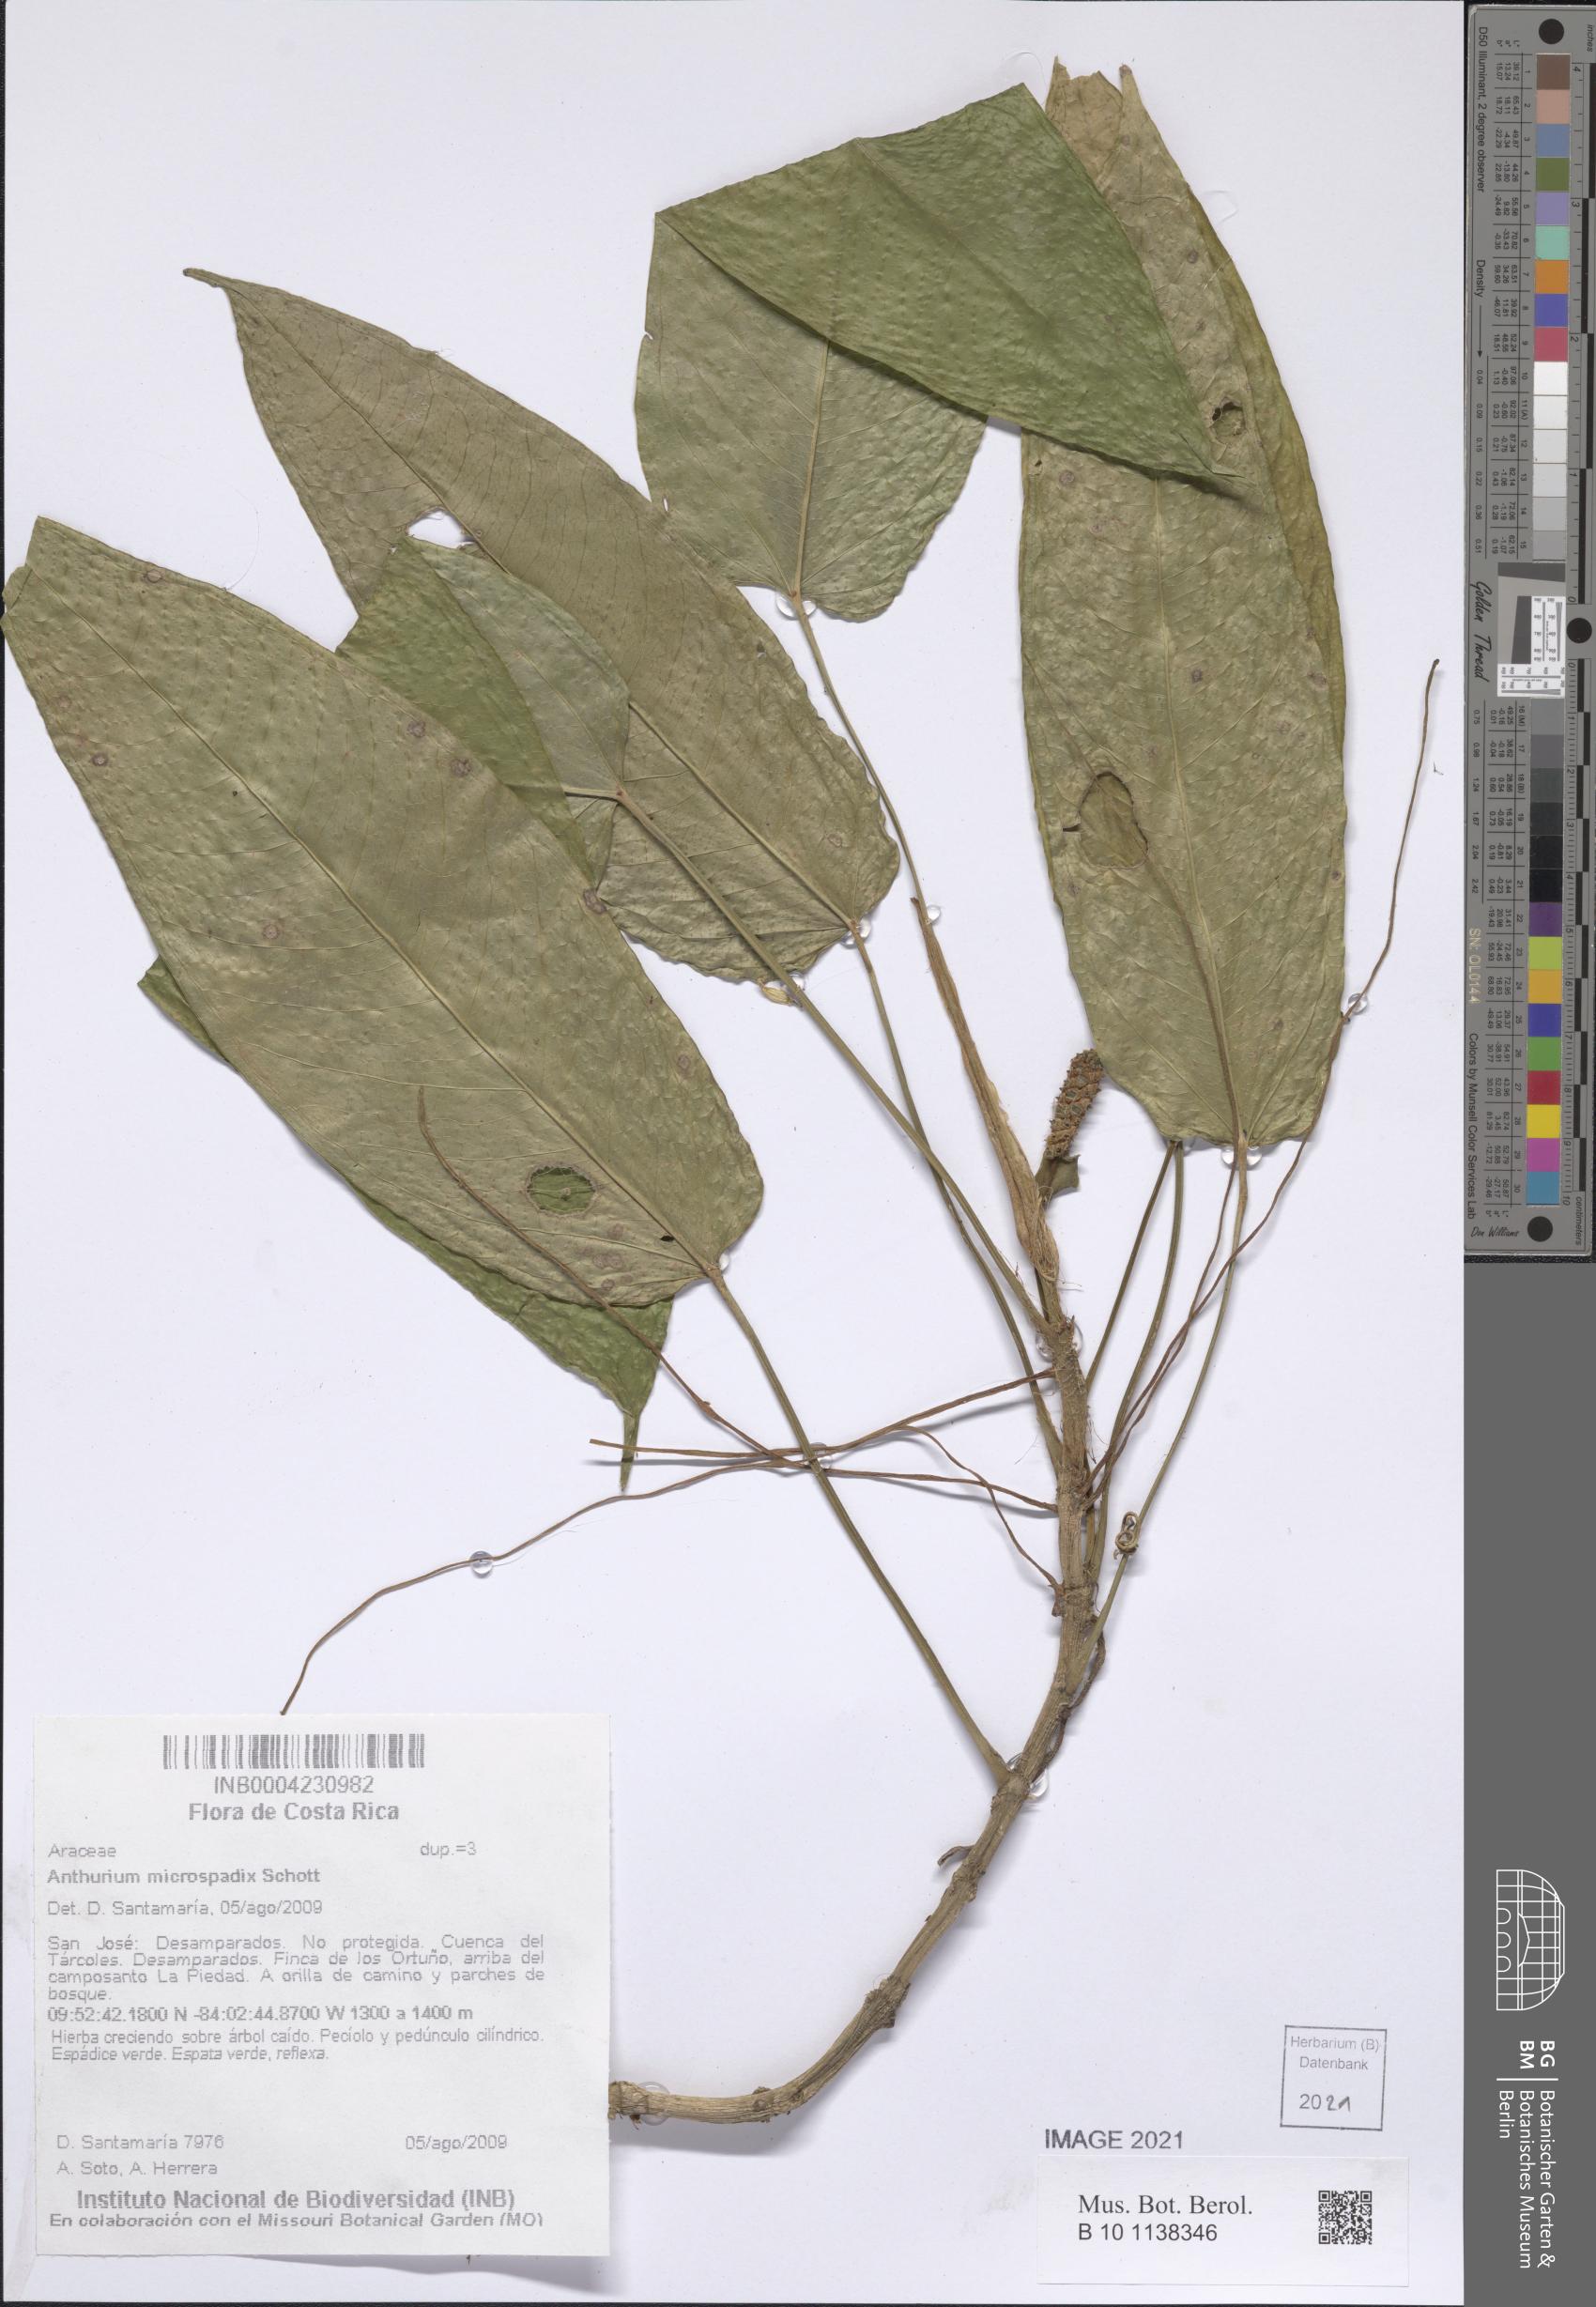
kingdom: Plantae
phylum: Tracheophyta
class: Liliopsida
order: Alismatales
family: Araceae
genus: Anthurium
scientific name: Anthurium microspadix
